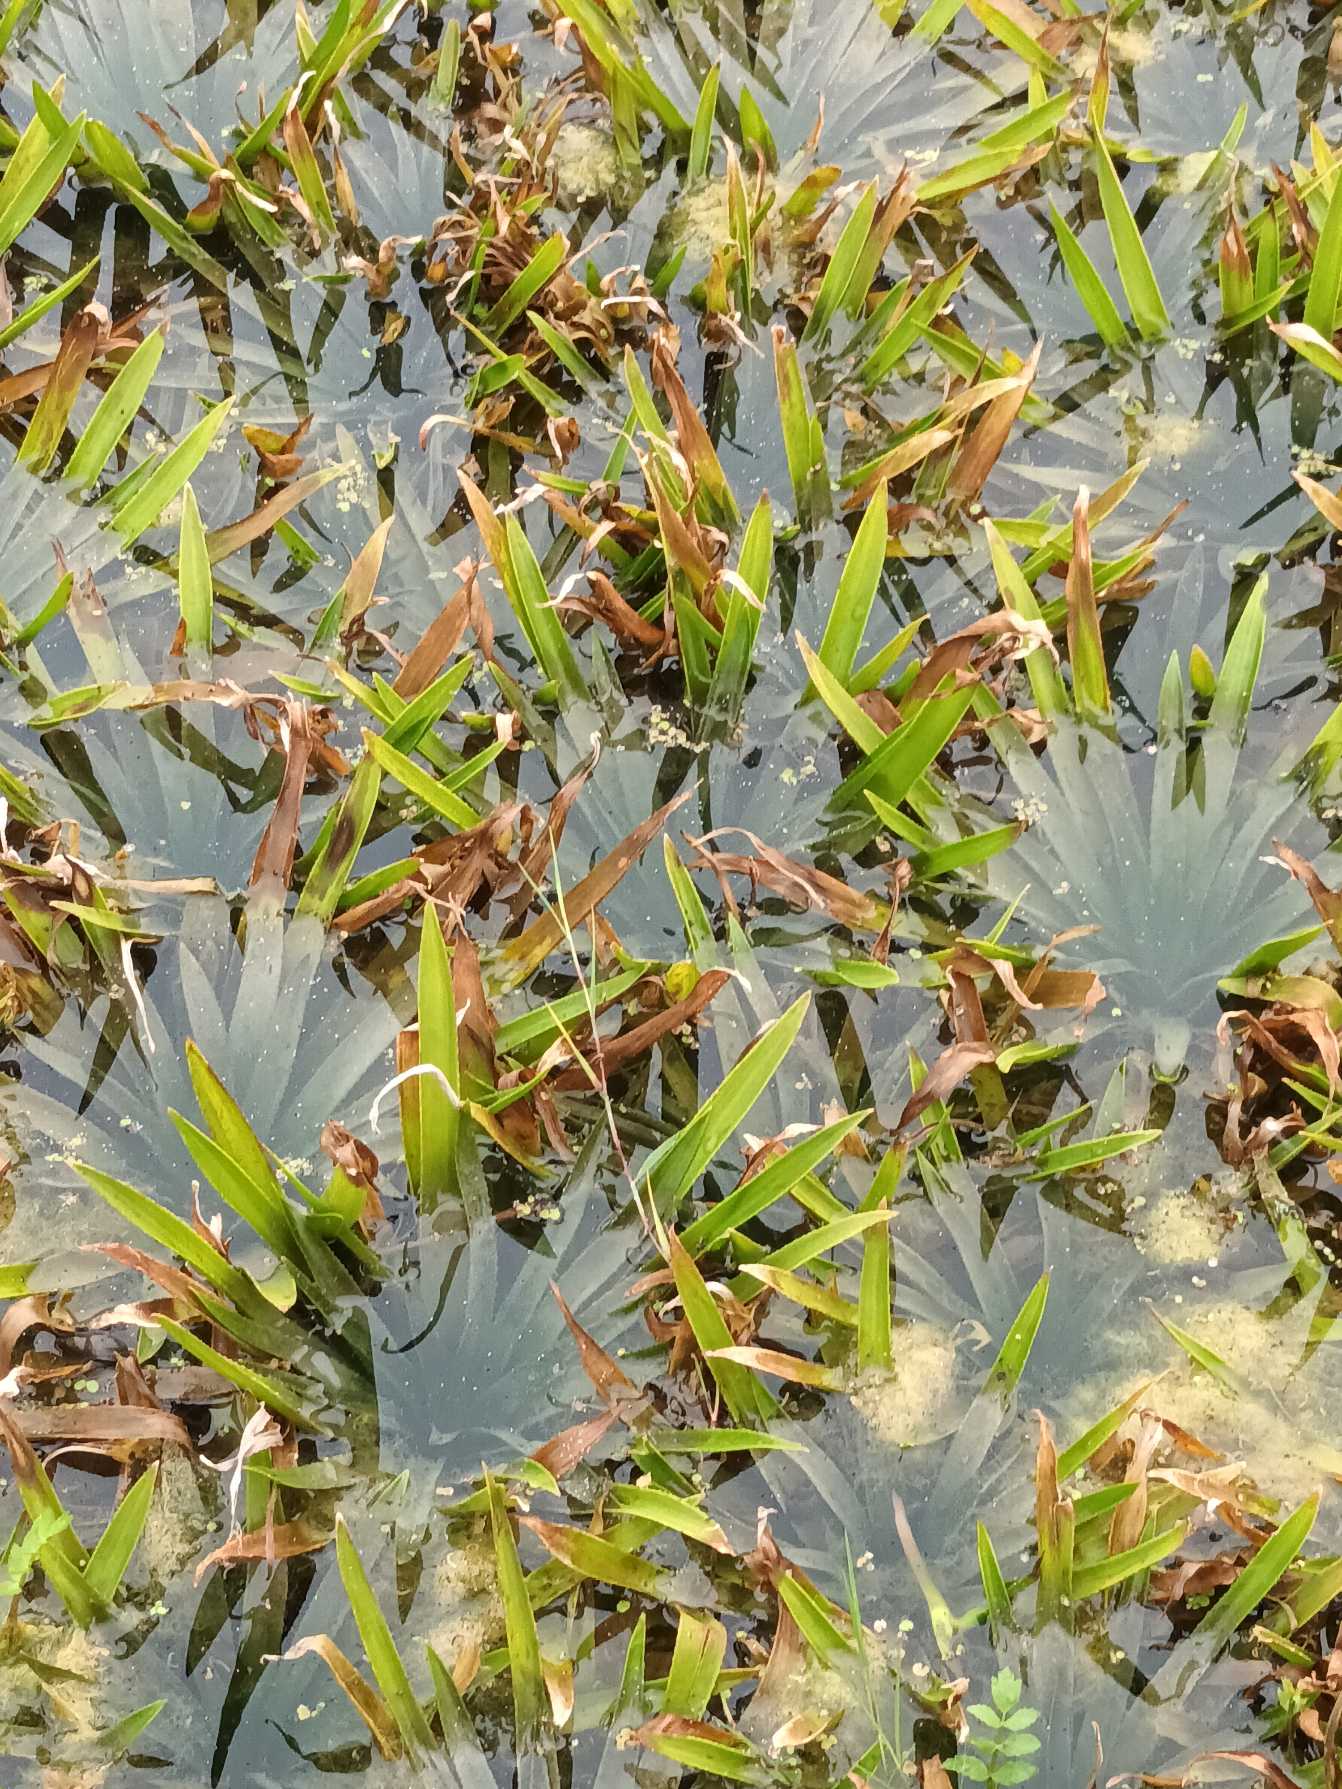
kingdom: Plantae
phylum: Tracheophyta
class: Liliopsida
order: Alismatales
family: Hydrocharitaceae
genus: Stratiotes
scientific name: Stratiotes aloides
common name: Krebseklo
